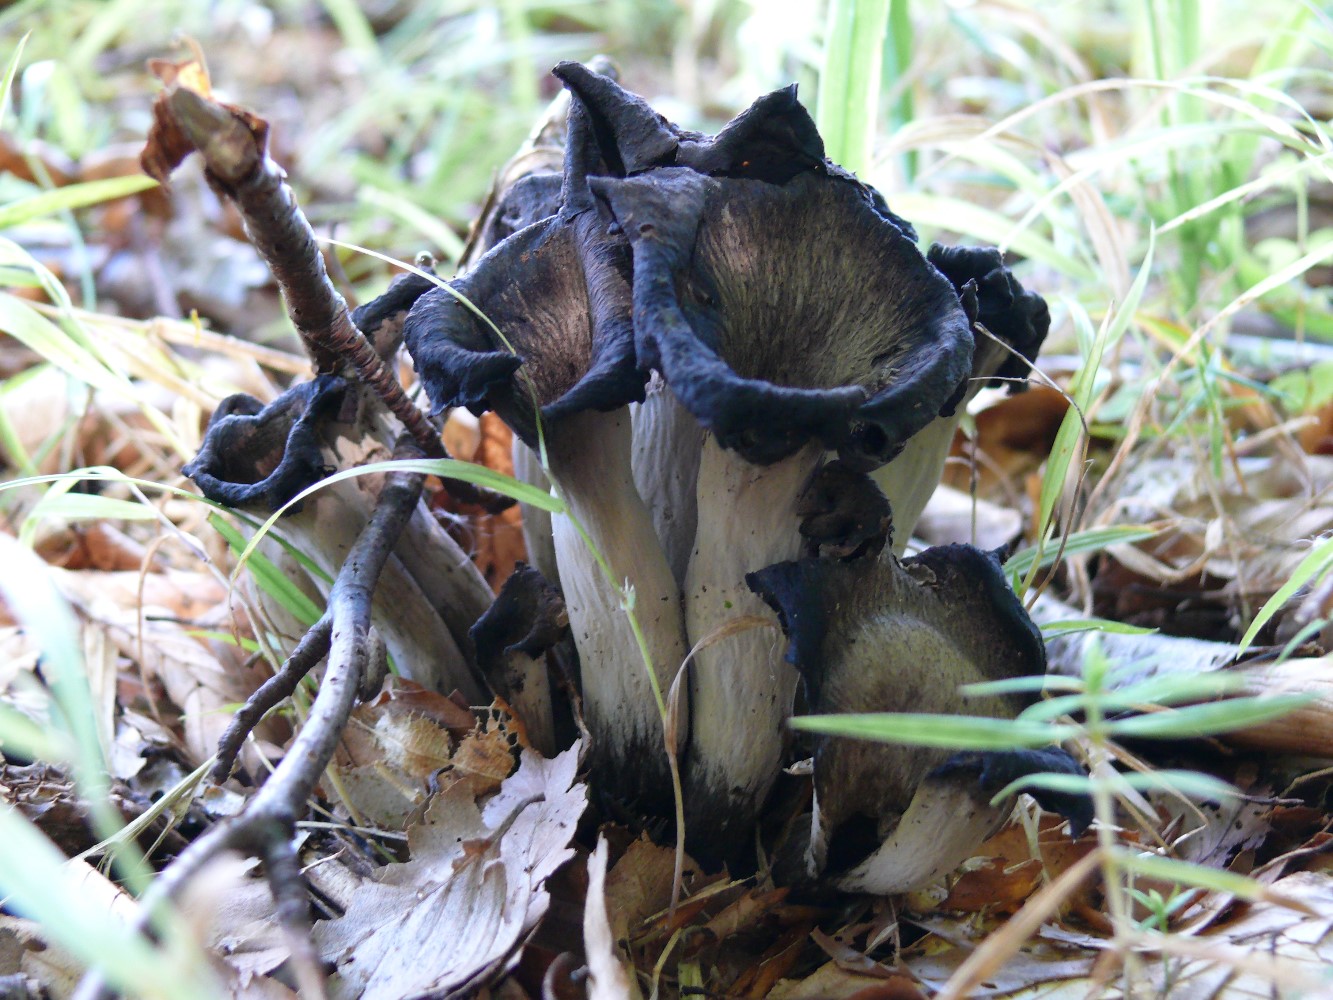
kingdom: Fungi
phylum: Basidiomycota
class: Agaricomycetes
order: Cantharellales
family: Hydnaceae
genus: Craterellus
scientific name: Craterellus cornucopioides
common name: trompetsvamp
